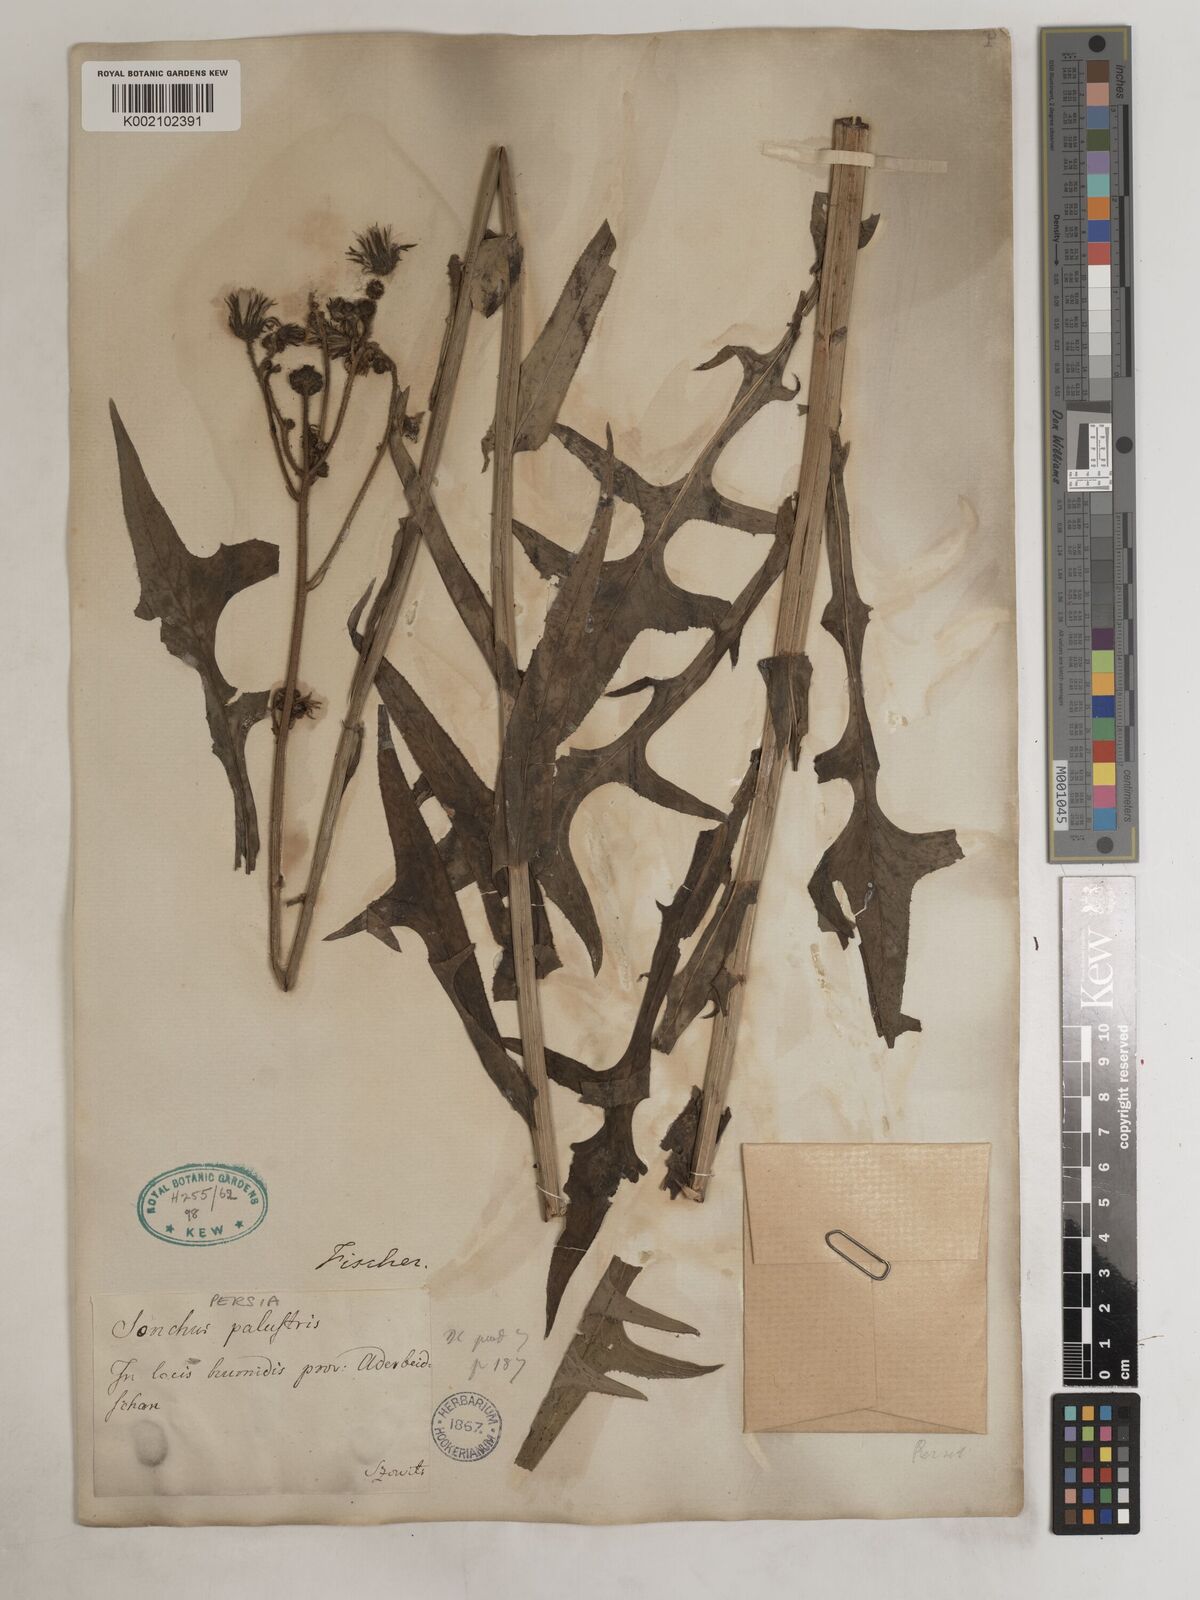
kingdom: Plantae
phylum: Tracheophyta
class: Magnoliopsida
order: Asterales
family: Asteraceae
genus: Sonchus
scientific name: Sonchus palustris
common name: Marsh sow-thistle
